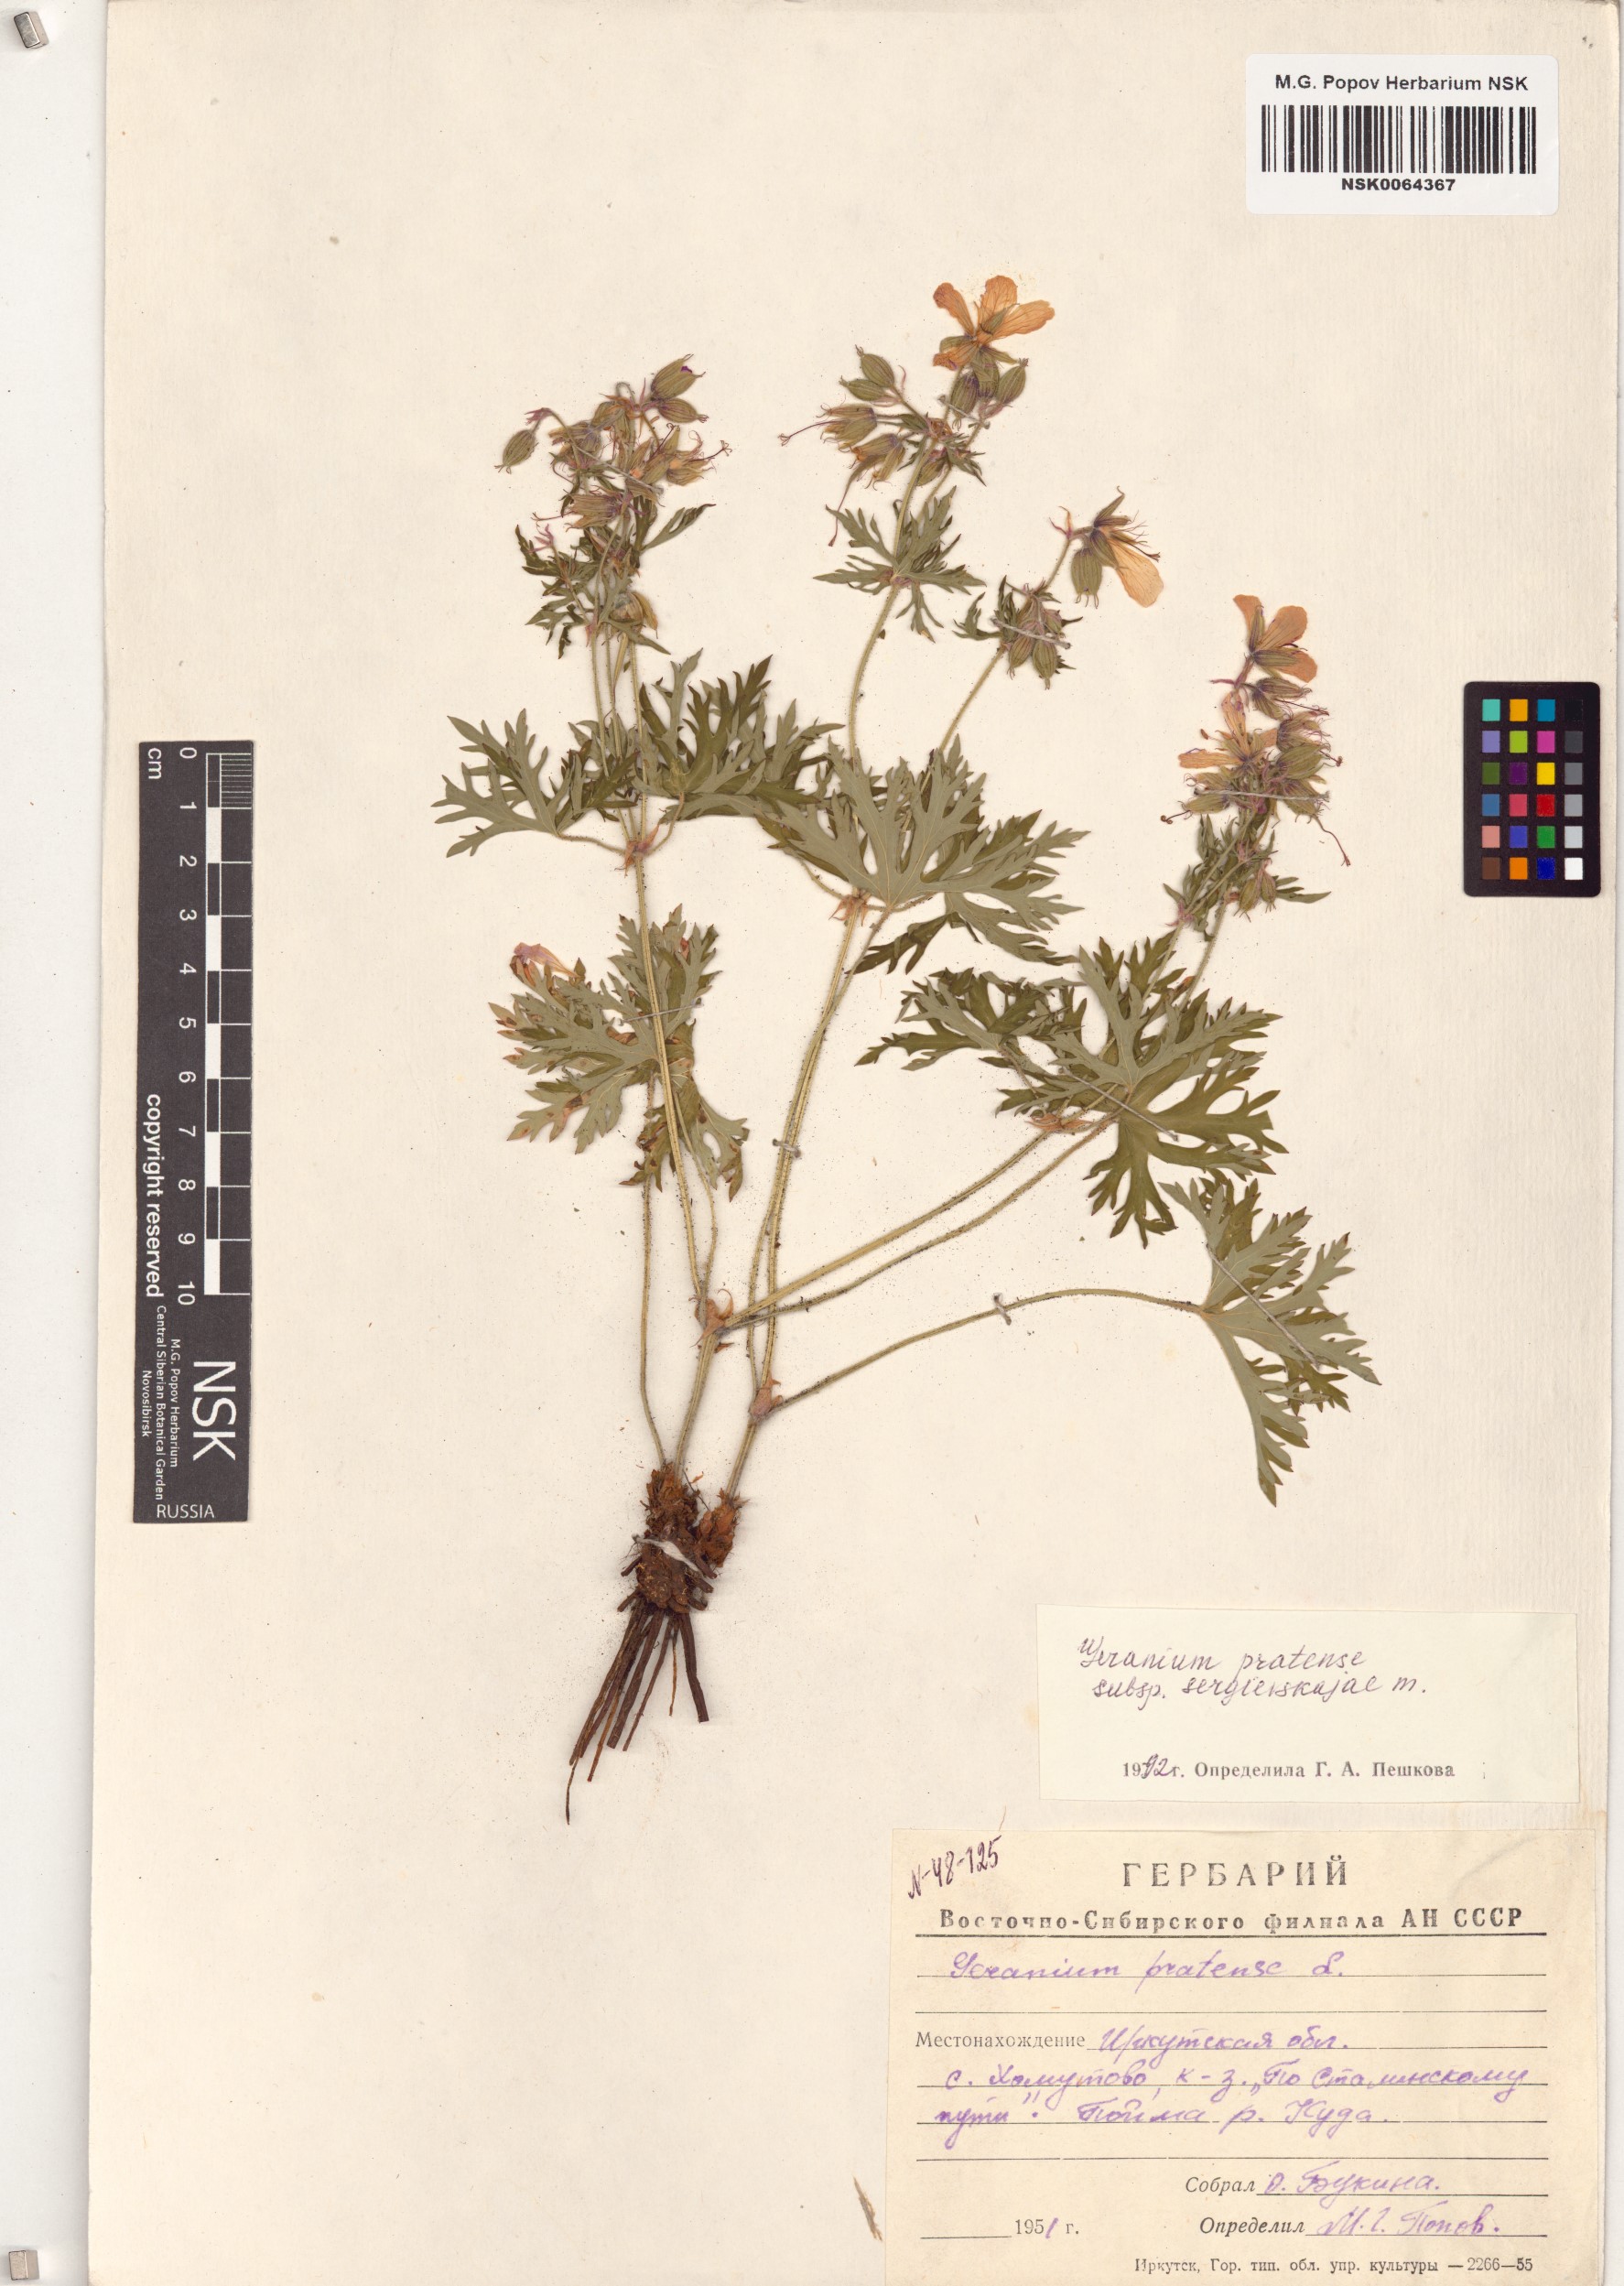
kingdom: Plantae
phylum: Tracheophyta
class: Magnoliopsida
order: Geraniales
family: Geraniaceae
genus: Geranium
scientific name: Geranium pratense
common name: Meadow crane's-bill
